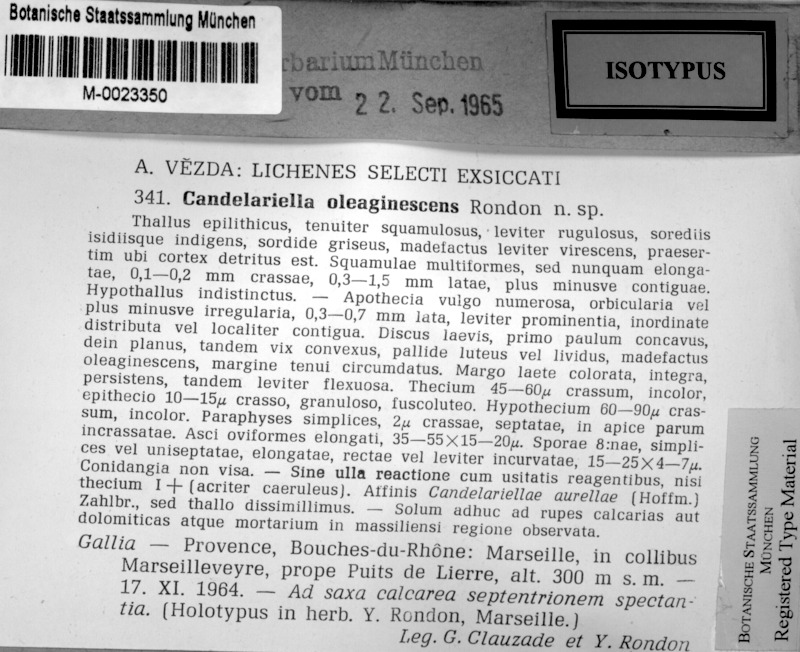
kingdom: Fungi
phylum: Ascomycota
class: Candelariomycetes
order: Candelariales
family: Candelariaceae
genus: Candelariella
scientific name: Candelariella oleaginescens
